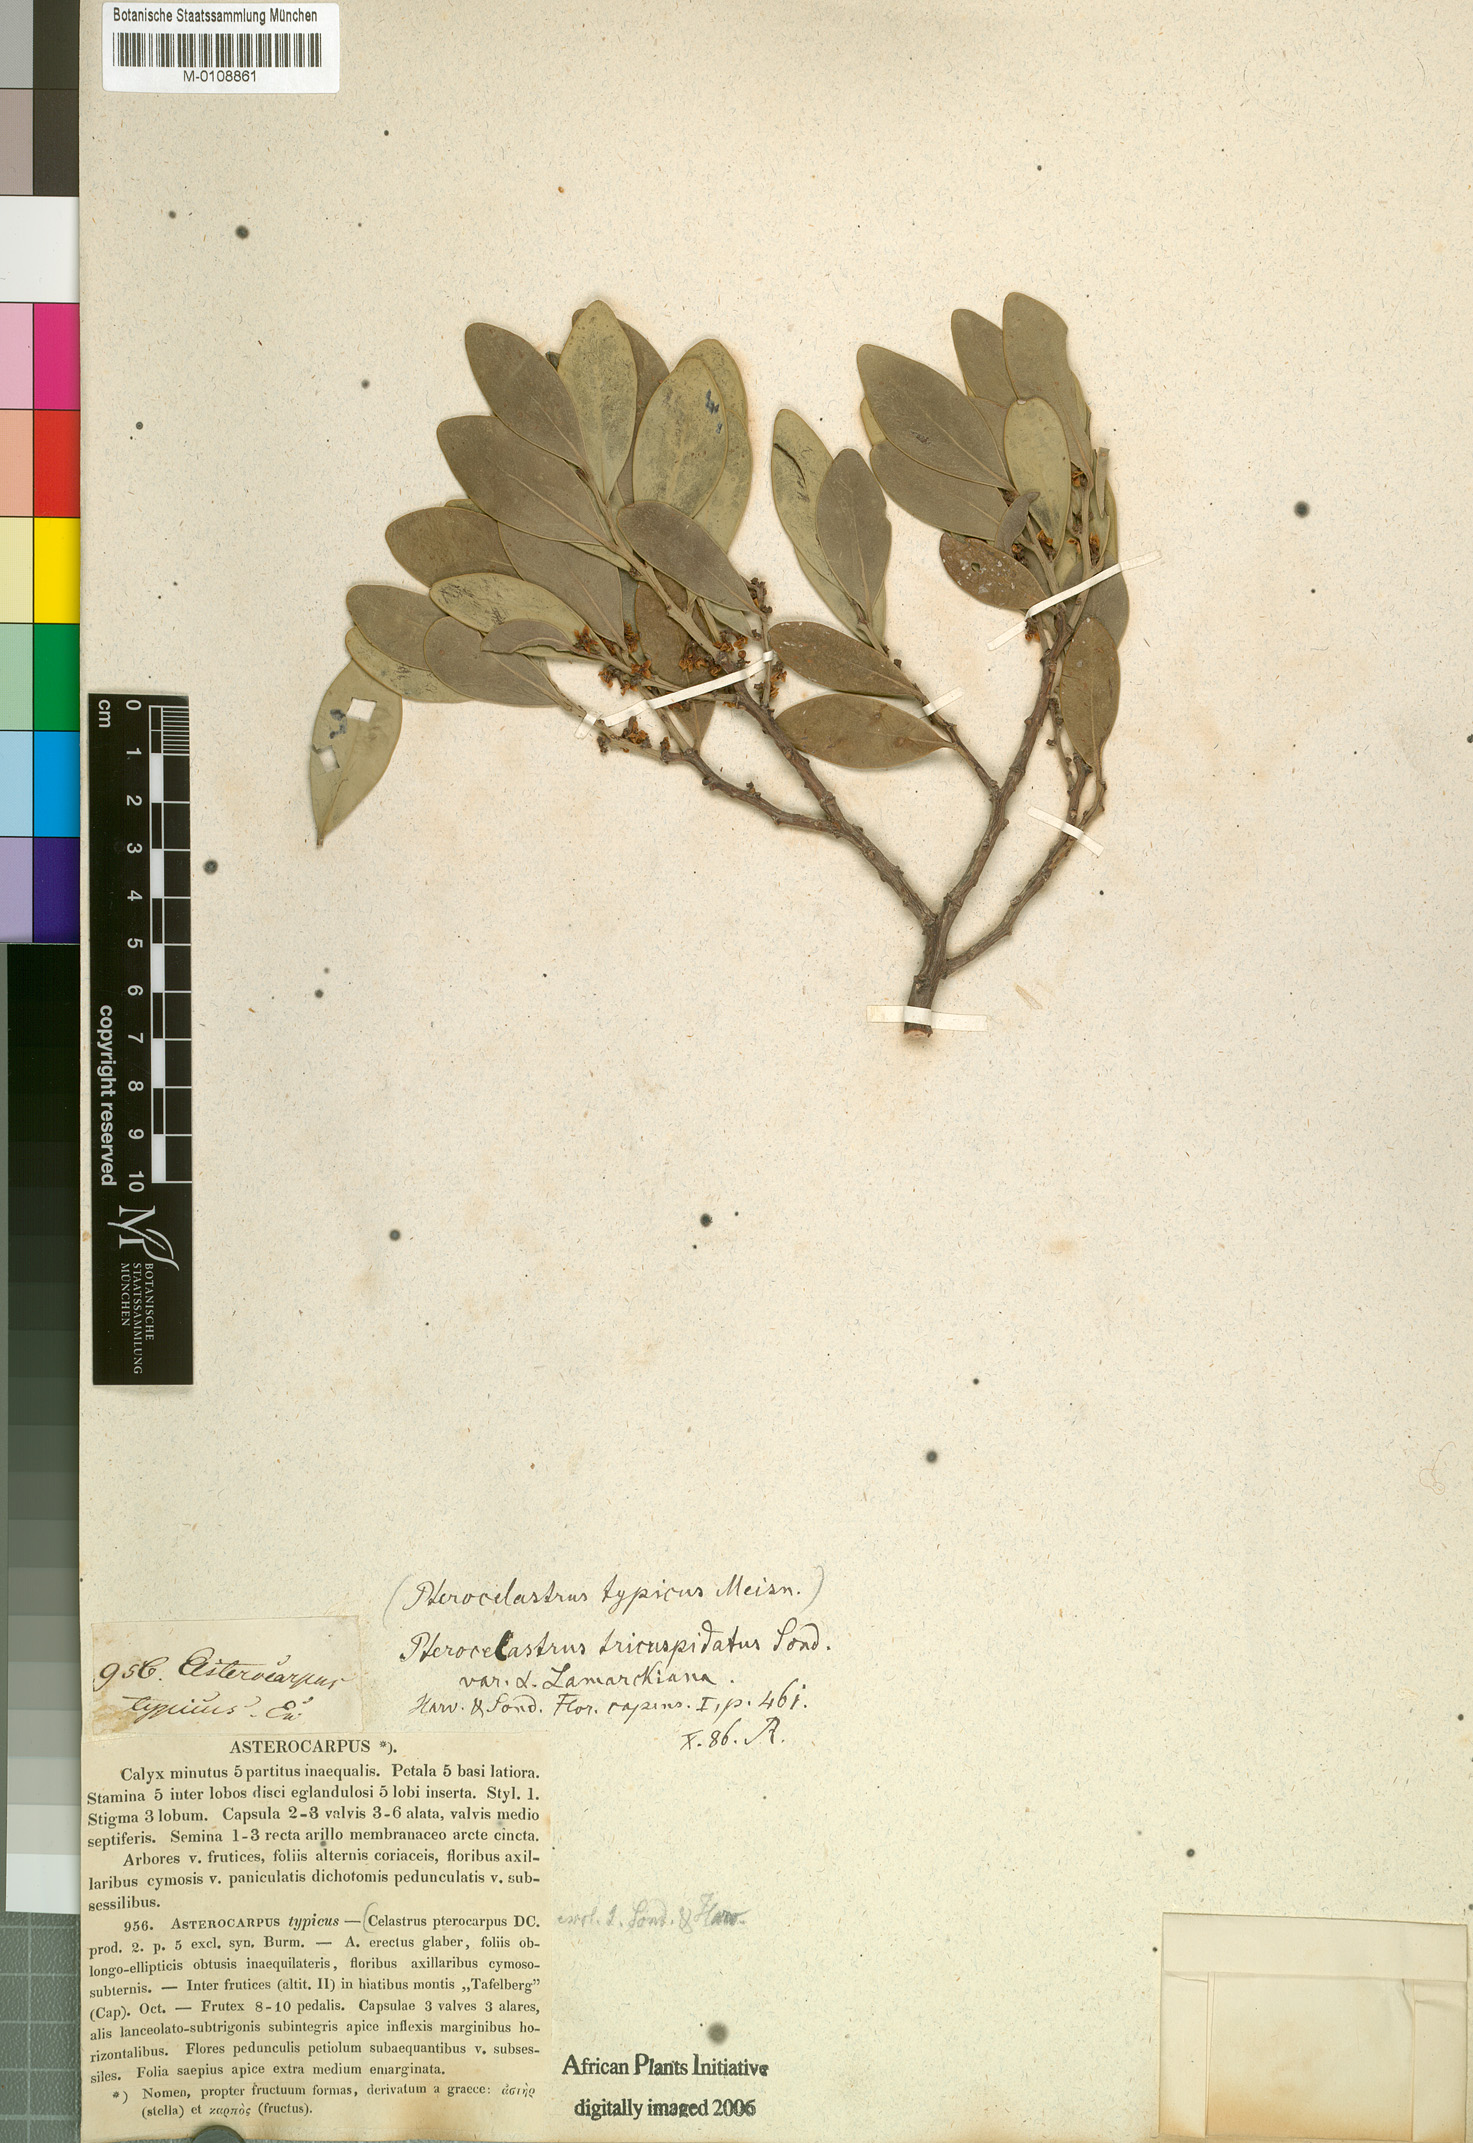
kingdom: Plantae
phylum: Tracheophyta
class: Magnoliopsida
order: Celastrales
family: Celastraceae
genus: Pterocelastrus
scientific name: Pterocelastrus tricuspidatus
